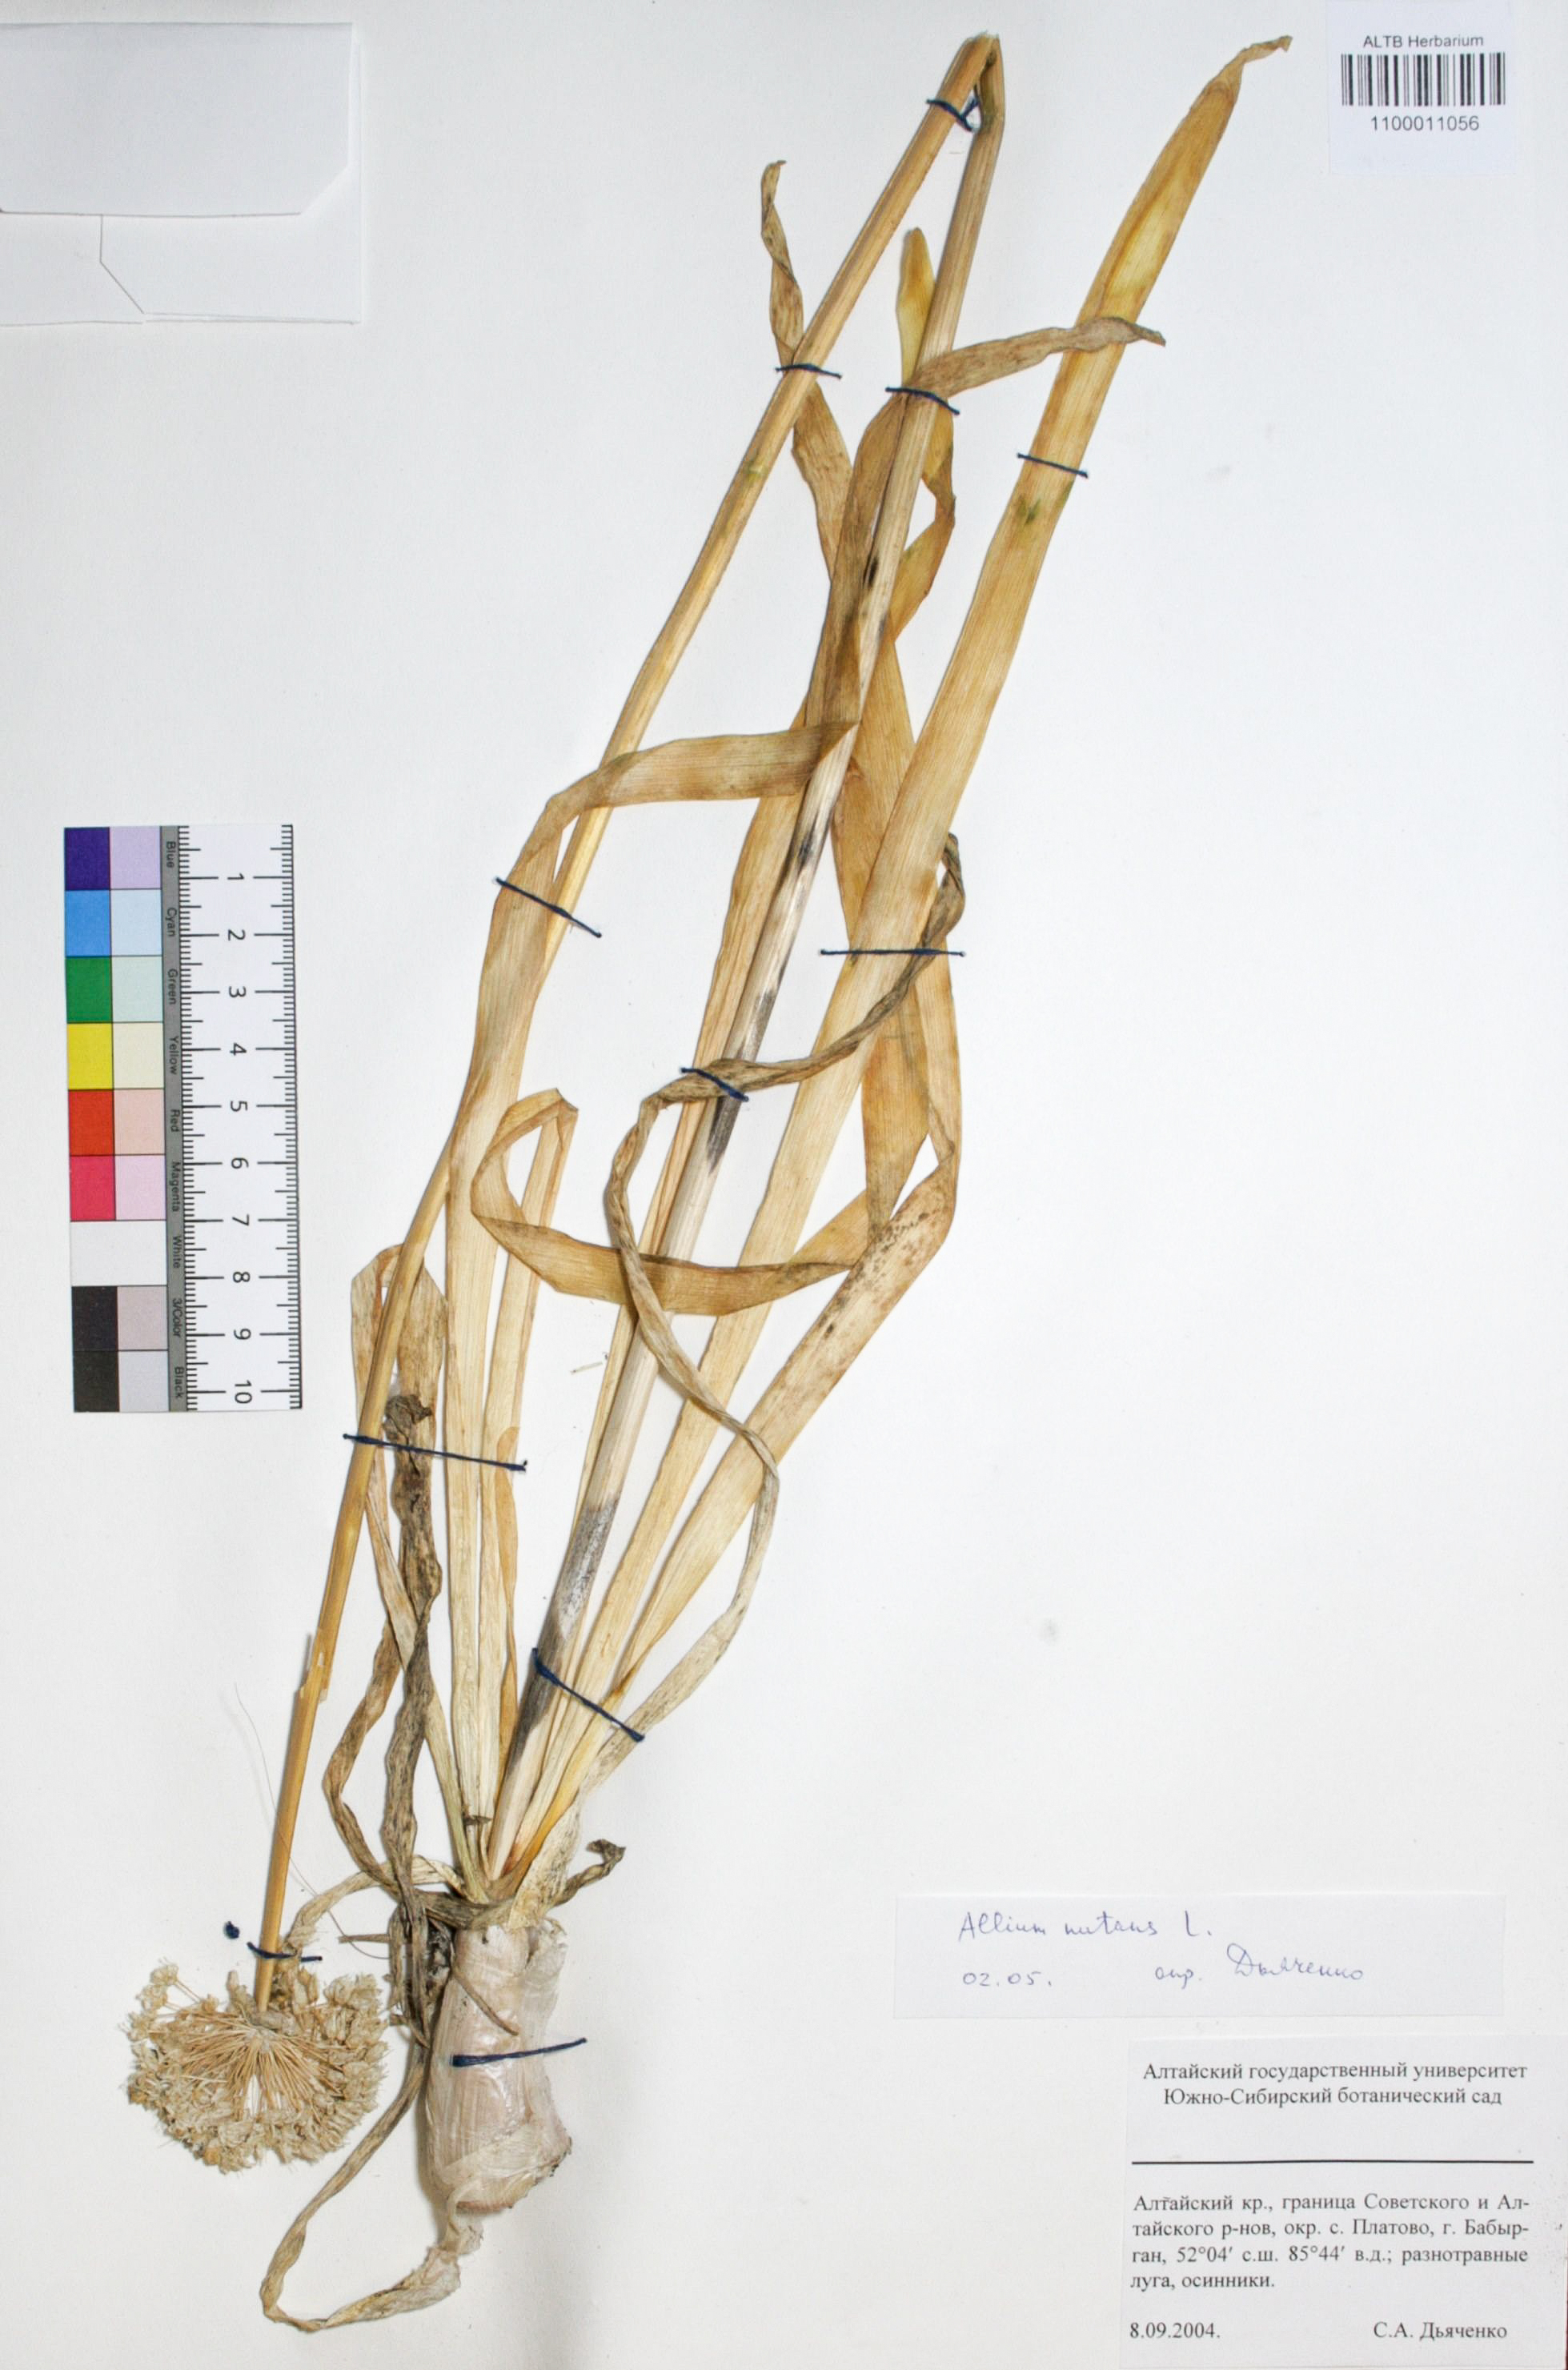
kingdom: Plantae
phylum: Tracheophyta
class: Liliopsida
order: Asparagales
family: Amaryllidaceae
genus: Allium
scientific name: Allium nutans
